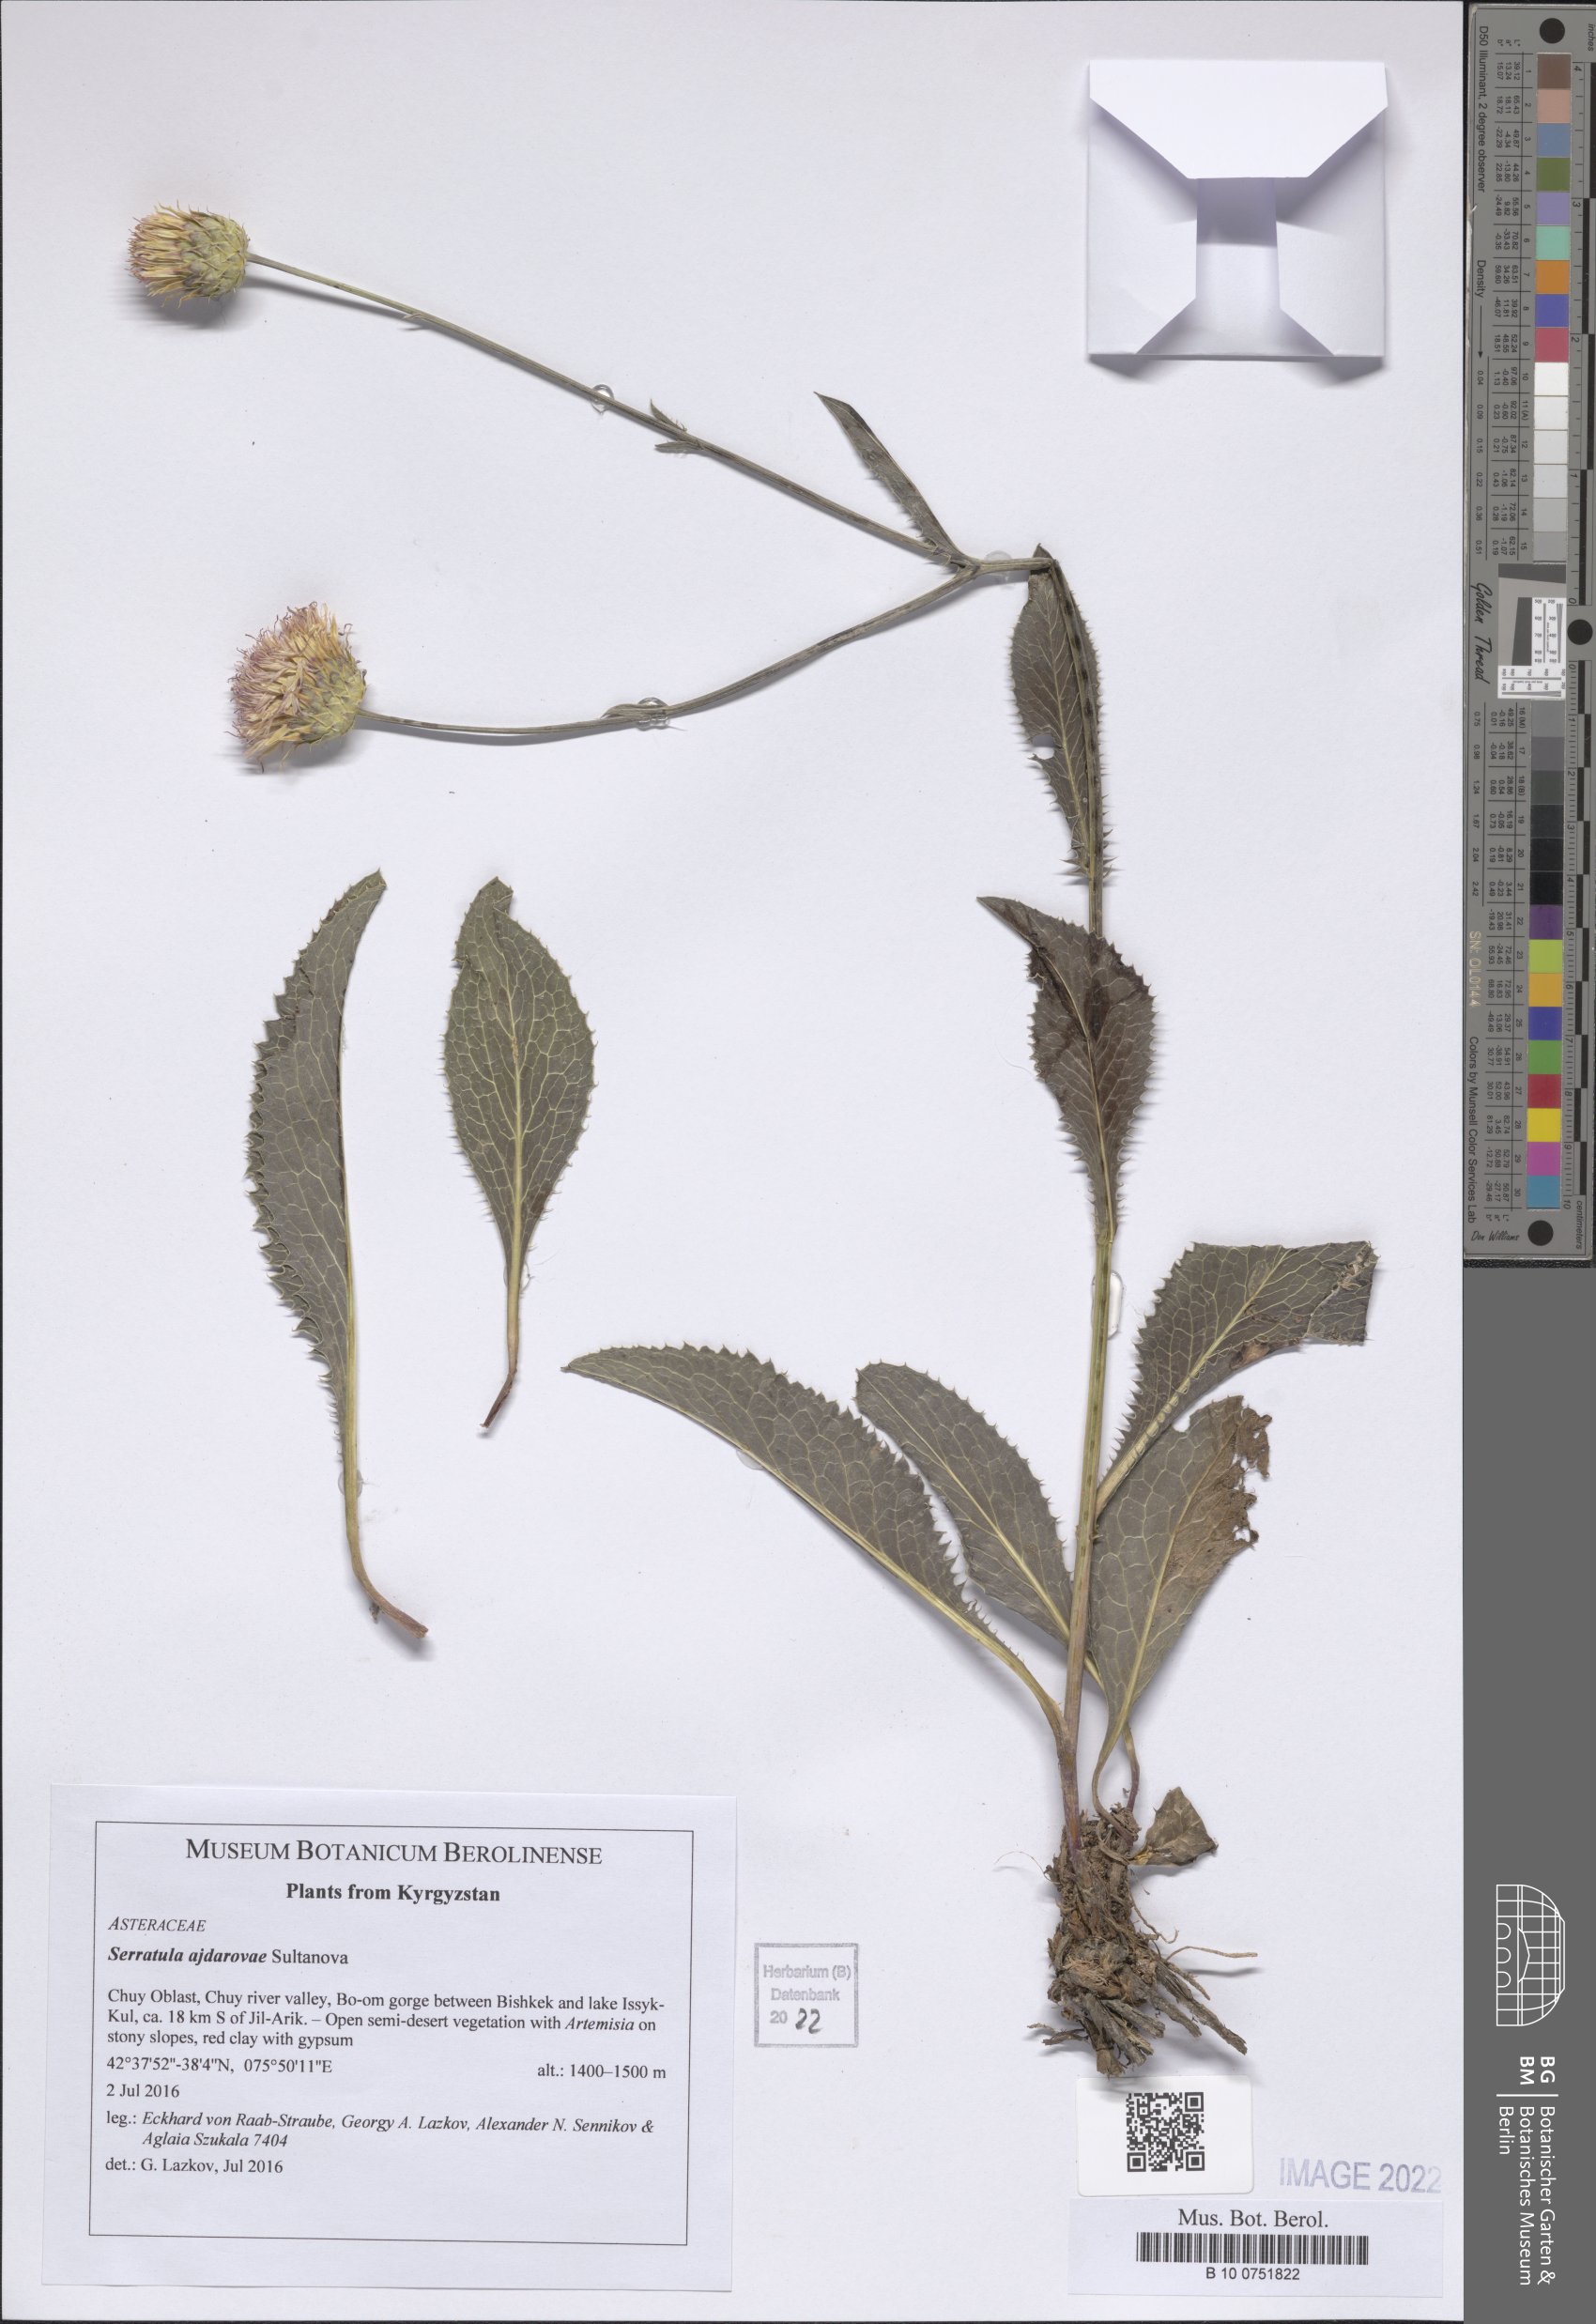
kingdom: Plantae
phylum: Tracheophyta
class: Magnoliopsida
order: Asterales
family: Asteraceae
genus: Klasea
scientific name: Klasea suffruticulosa
